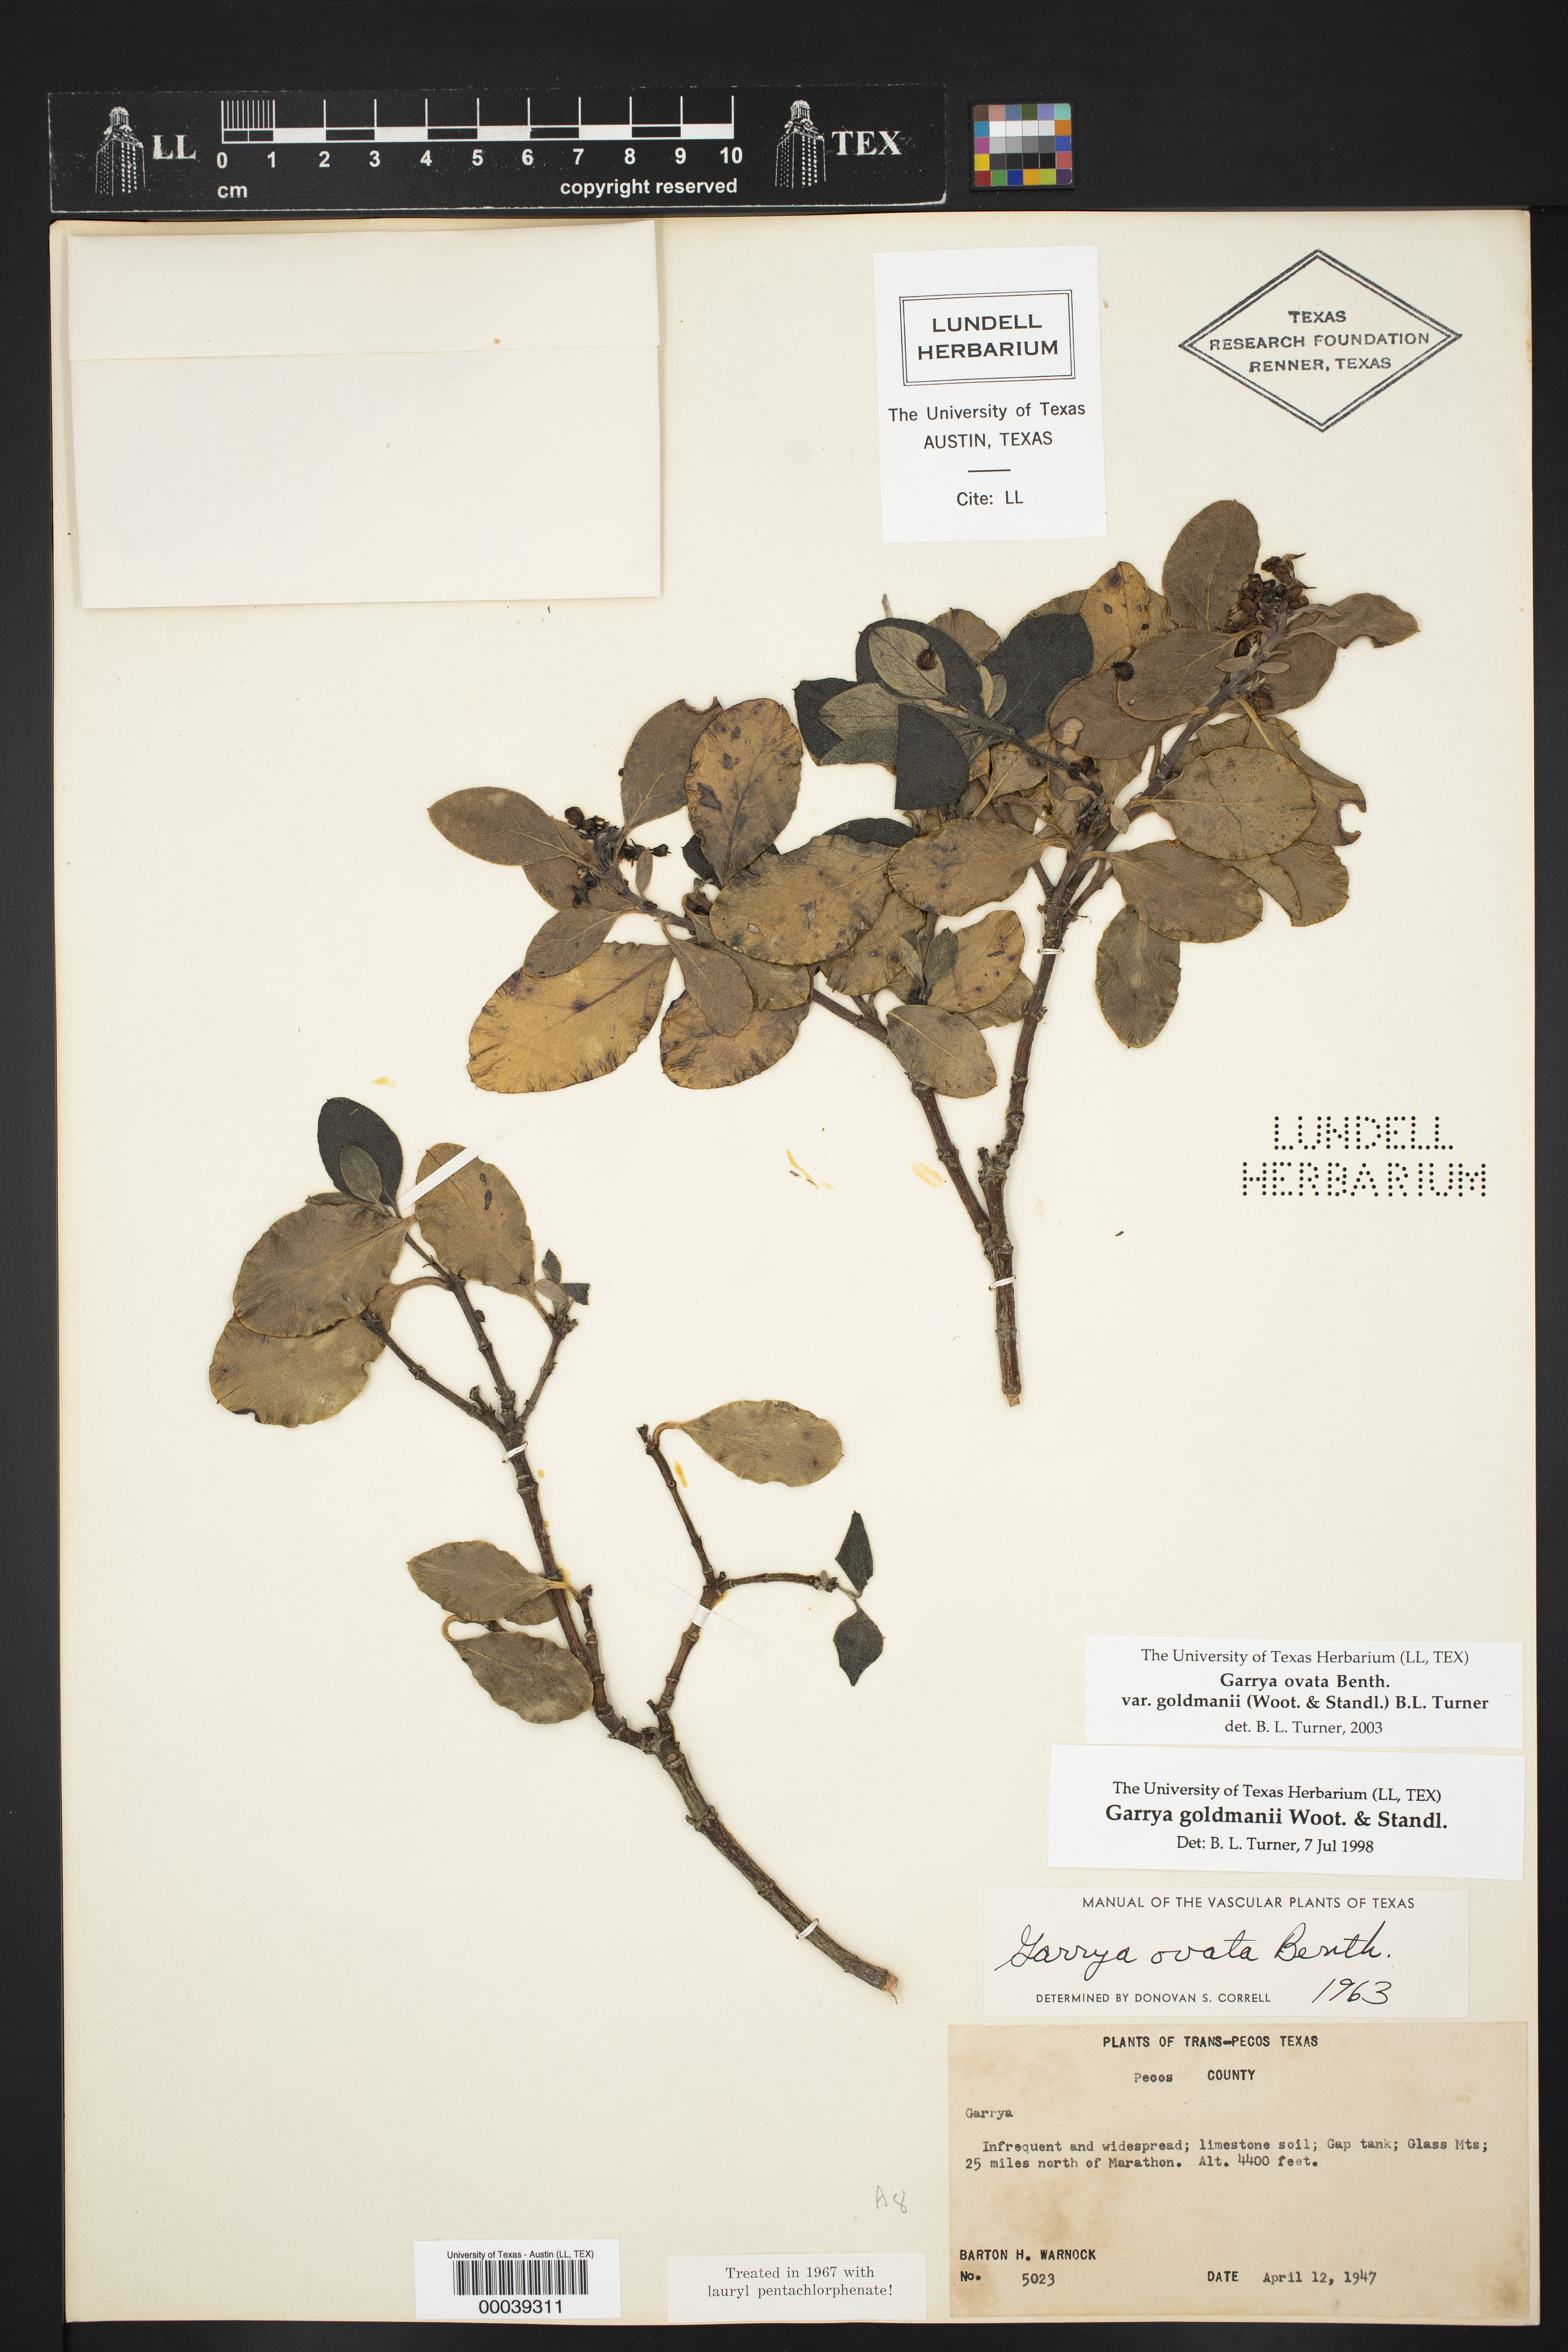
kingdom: Plantae
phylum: Tracheophyta
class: Magnoliopsida
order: Garryales
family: Garryaceae
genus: Garrya
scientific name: Garrya goldmanii
